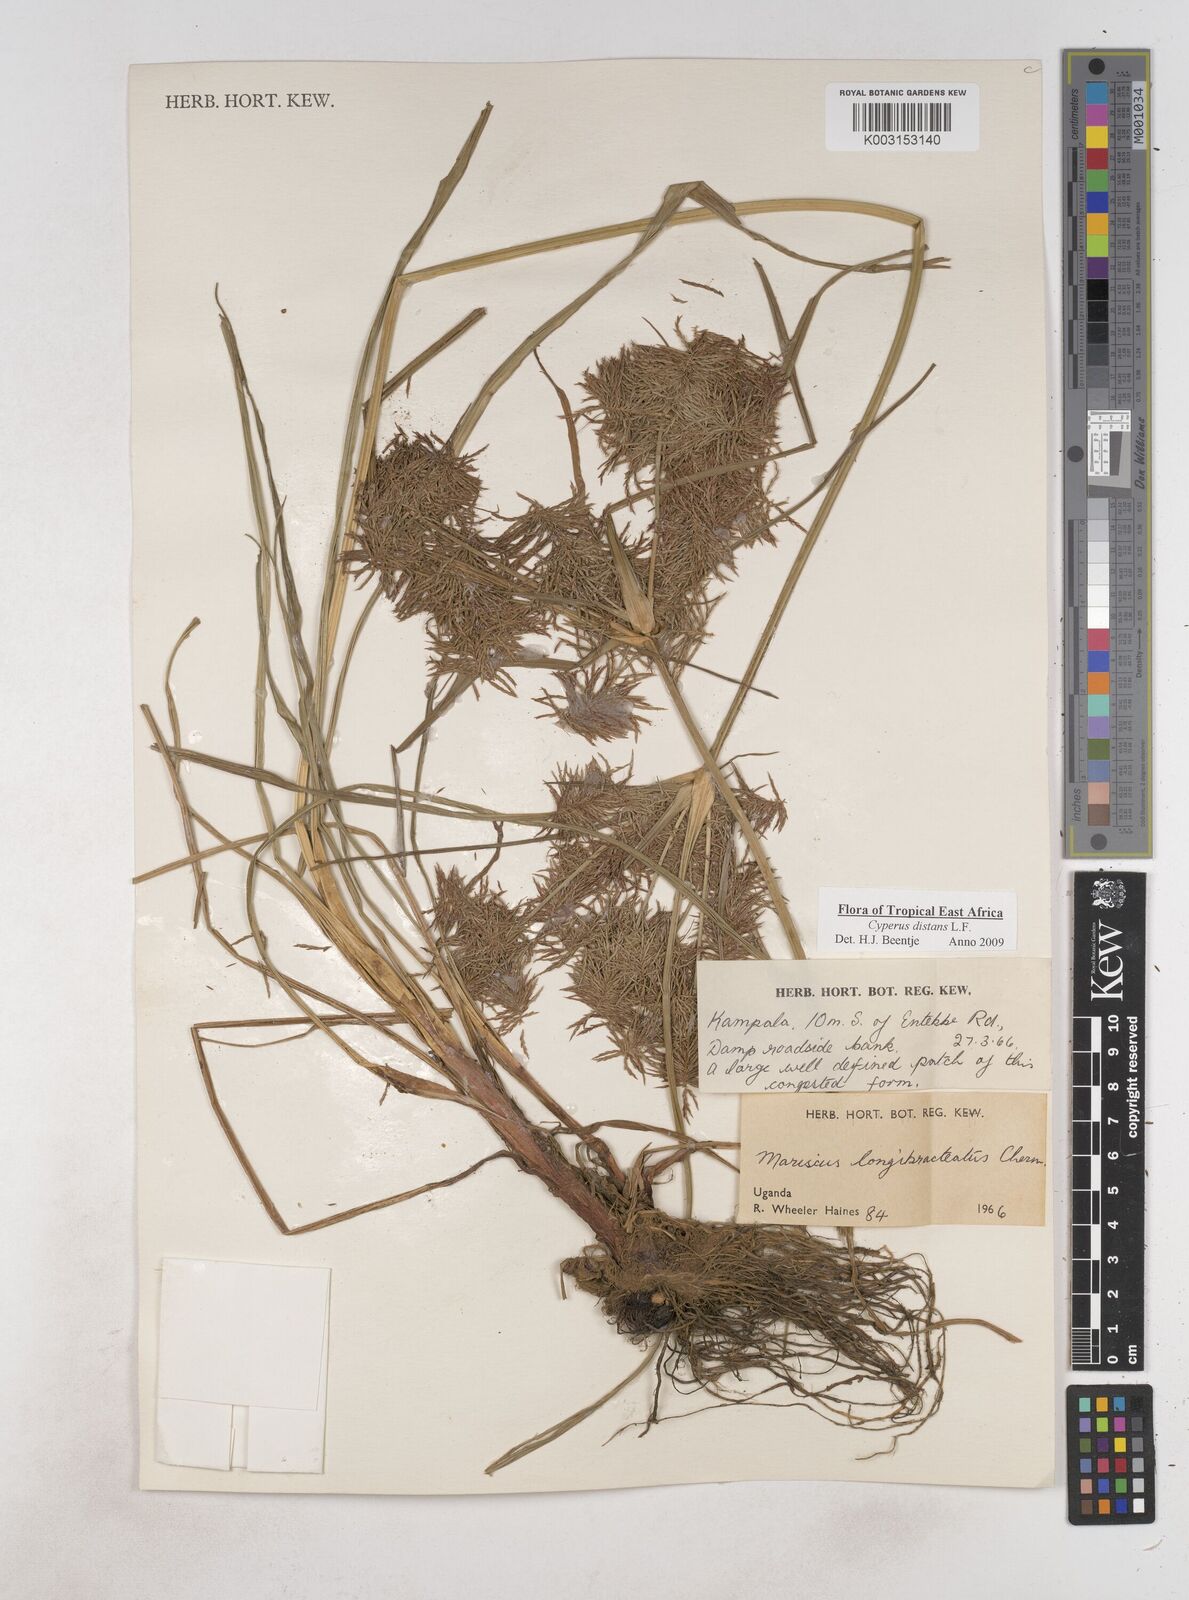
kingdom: Plantae
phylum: Tracheophyta
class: Liliopsida
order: Poales
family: Cyperaceae
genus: Cyperus
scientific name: Cyperus distans
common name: Slender cyperus
